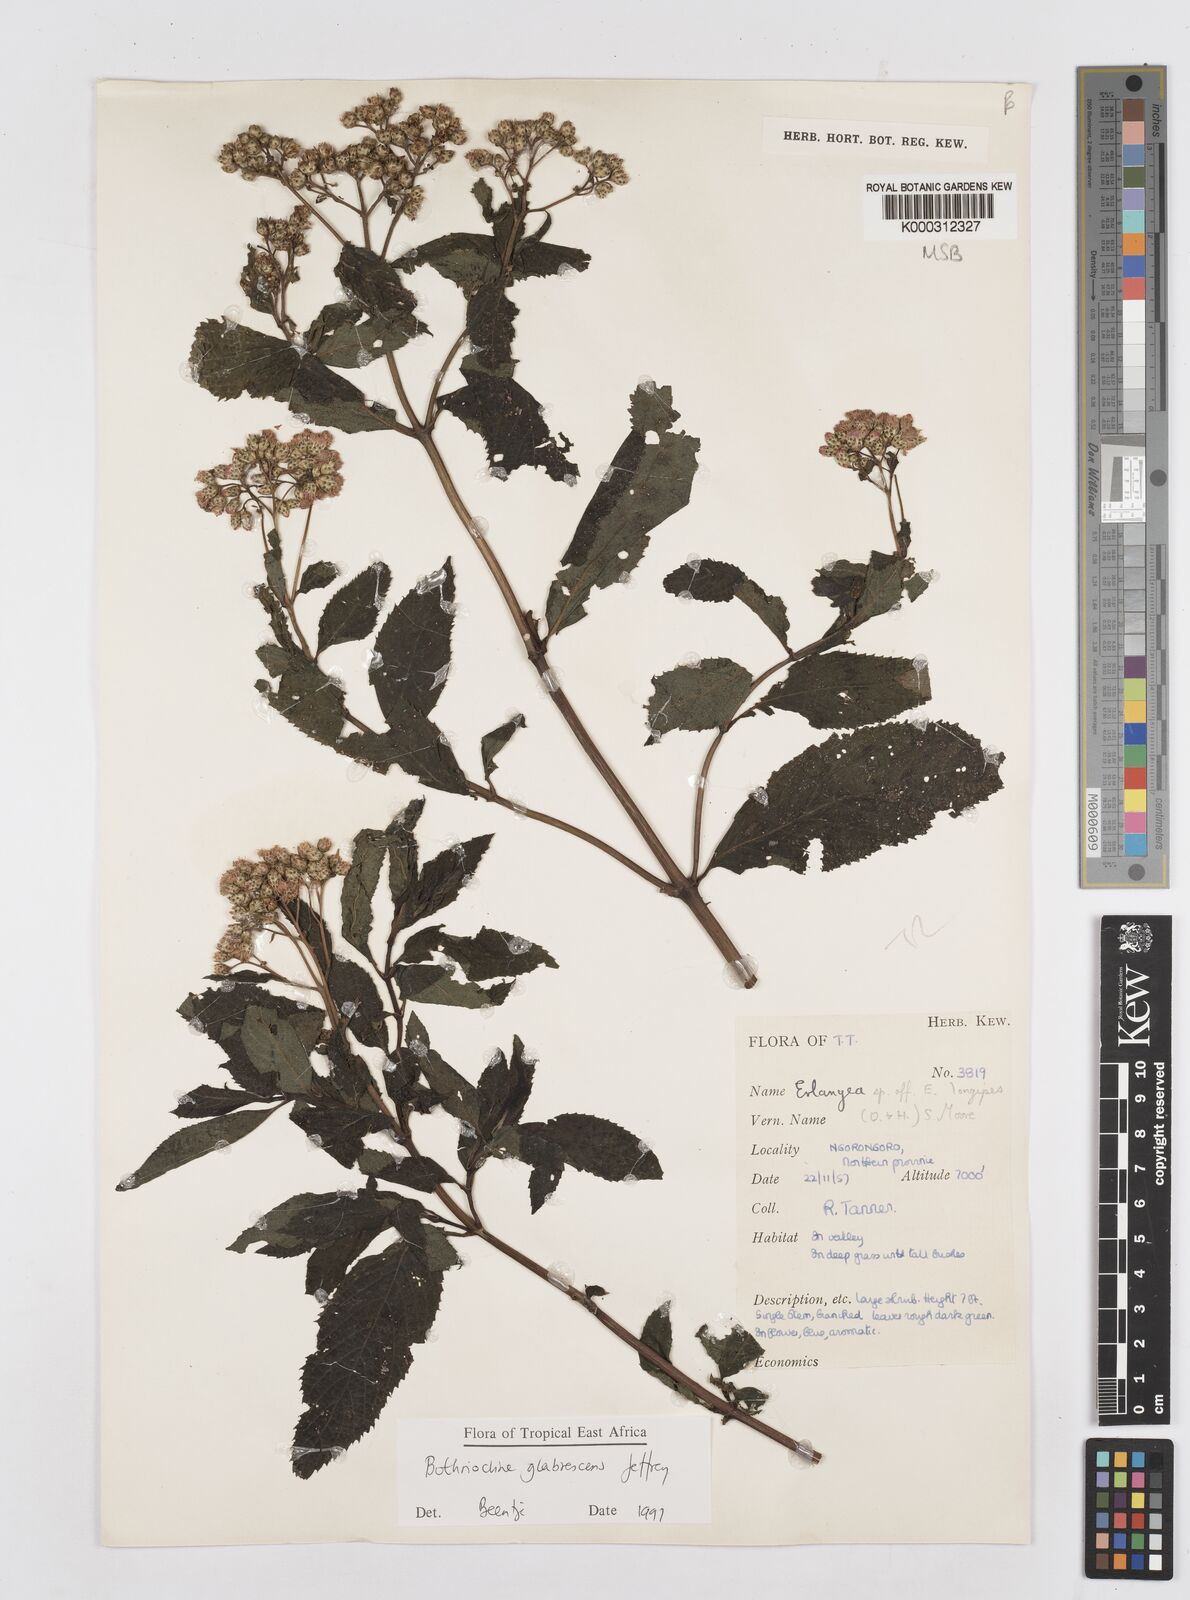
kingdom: Plantae
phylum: Tracheophyta
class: Magnoliopsida
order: Asterales
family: Asteraceae
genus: Bothriocline
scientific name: Bothriocline glabrescens
